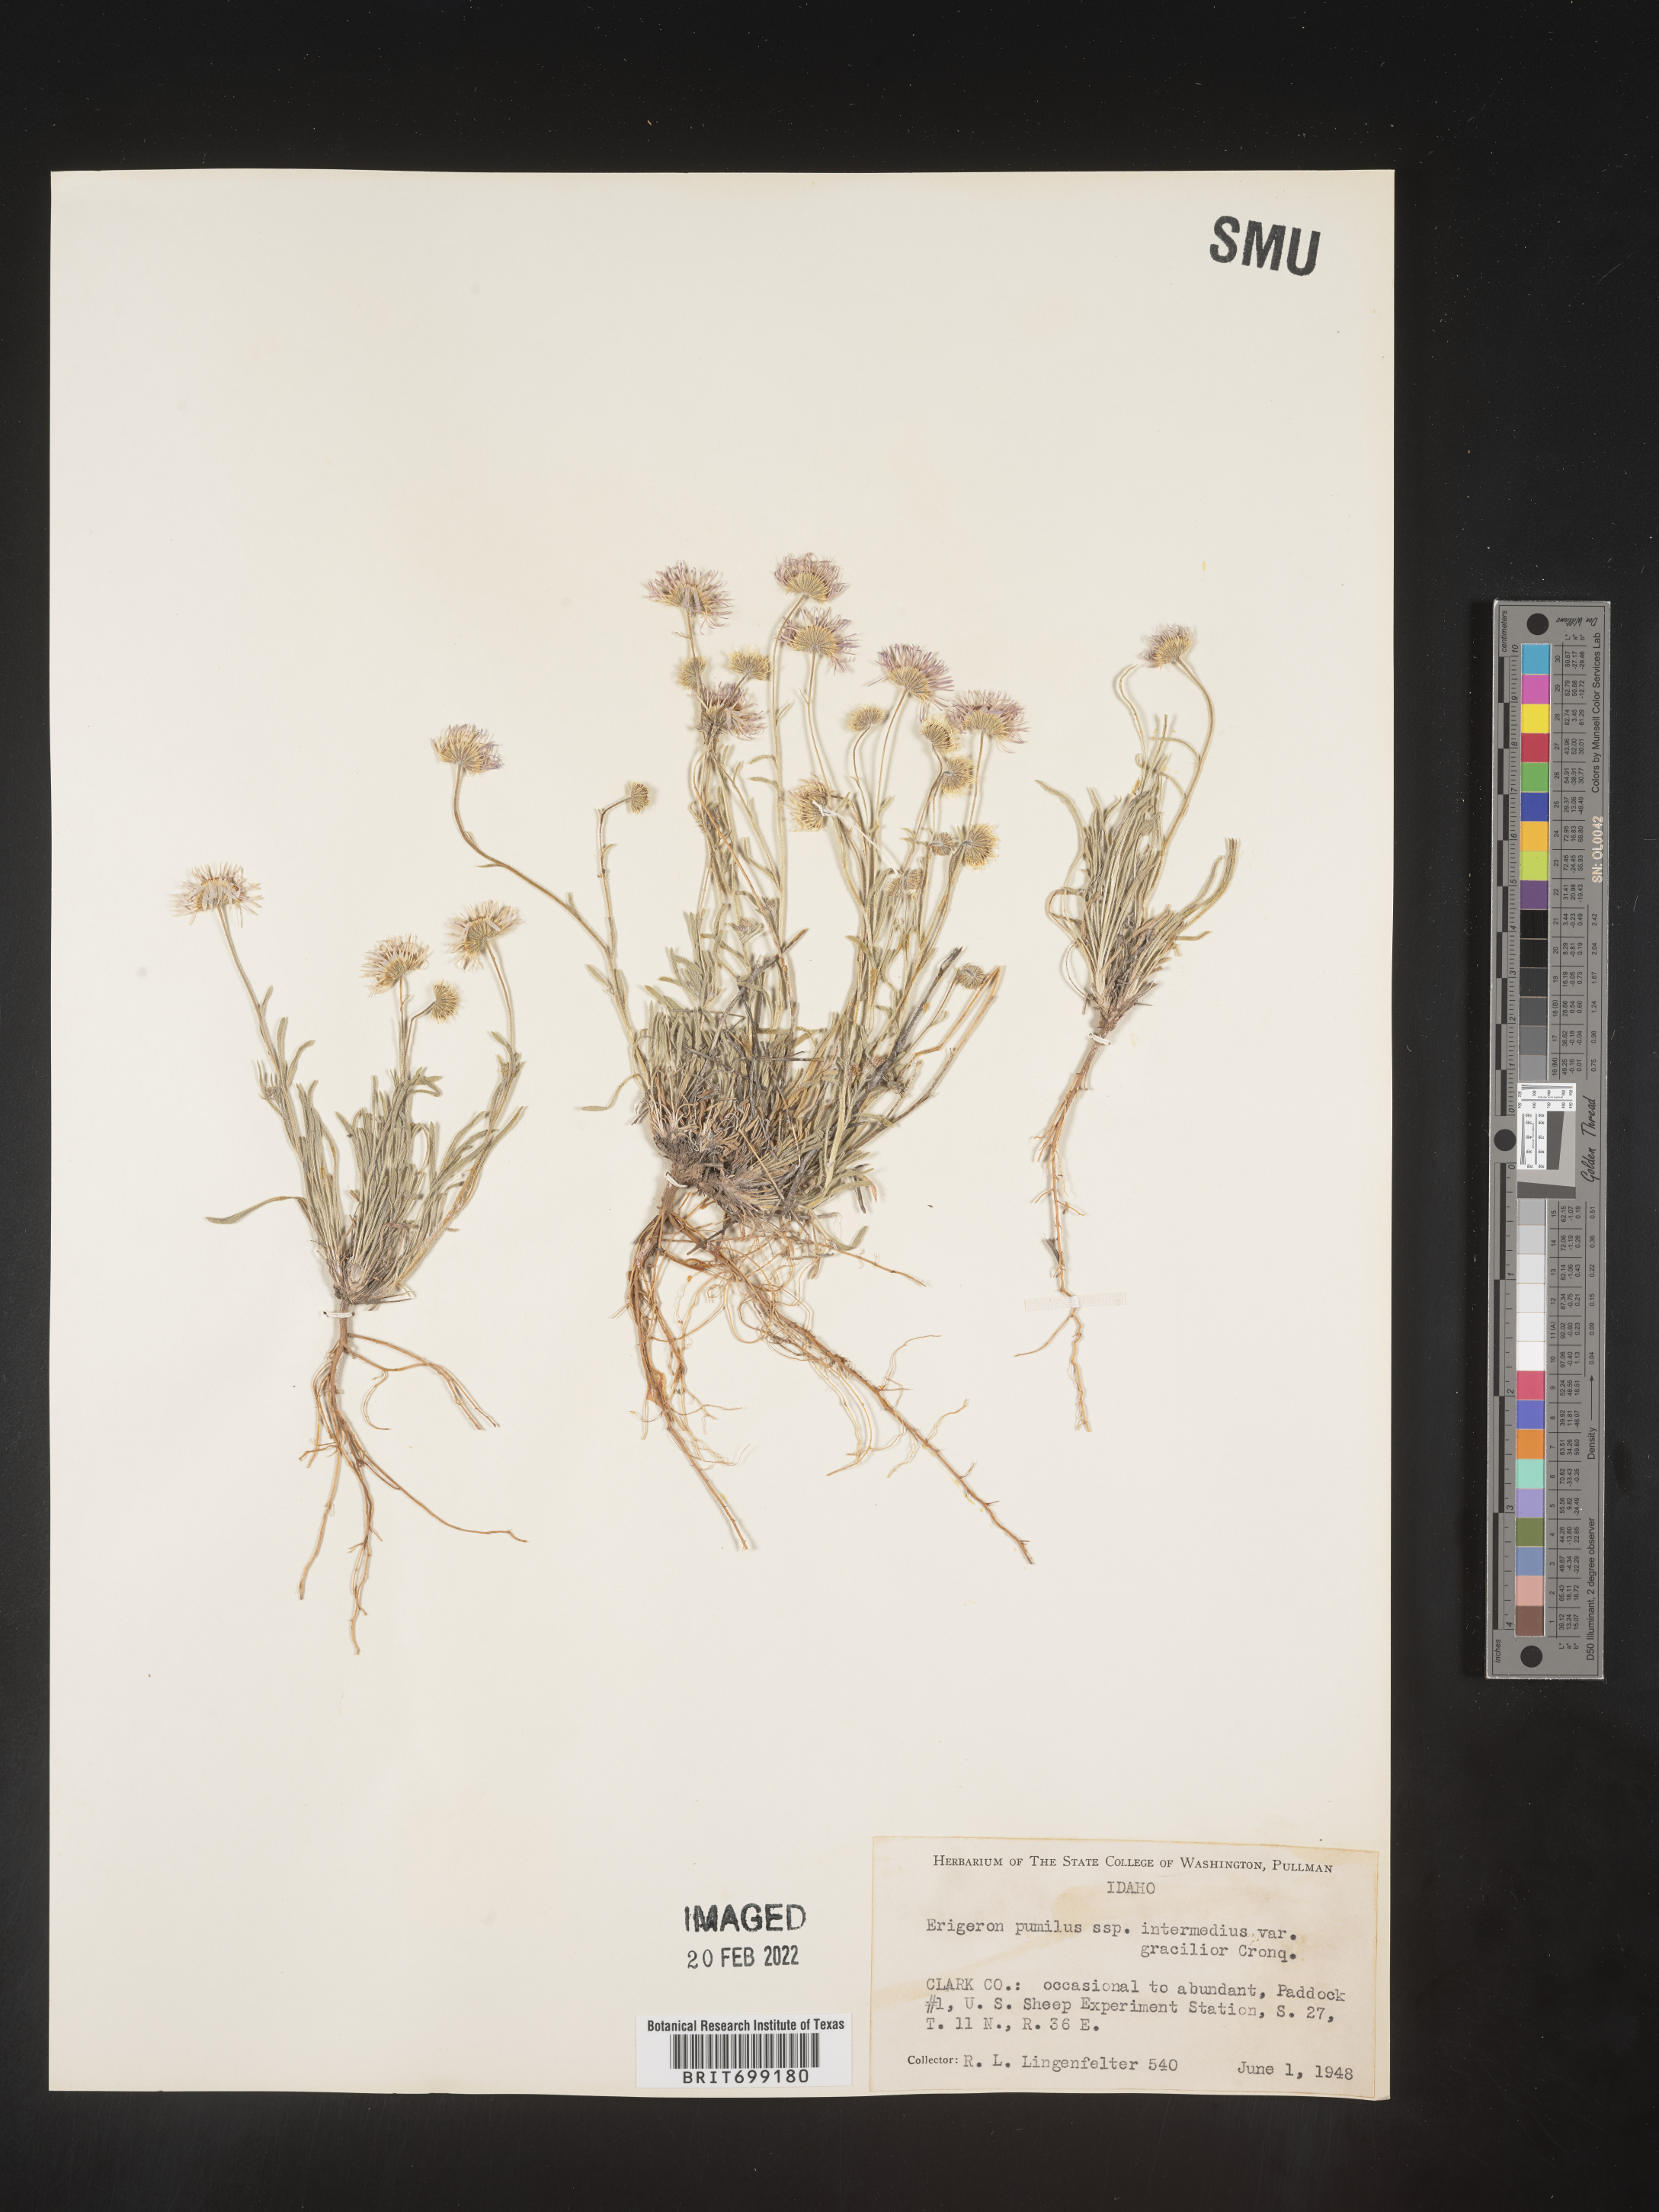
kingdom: Plantae
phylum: Tracheophyta
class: Magnoliopsida
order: Asterales
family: Asteraceae
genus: Erigeron
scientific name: Erigeron pumilus
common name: Shaggy fleabane
